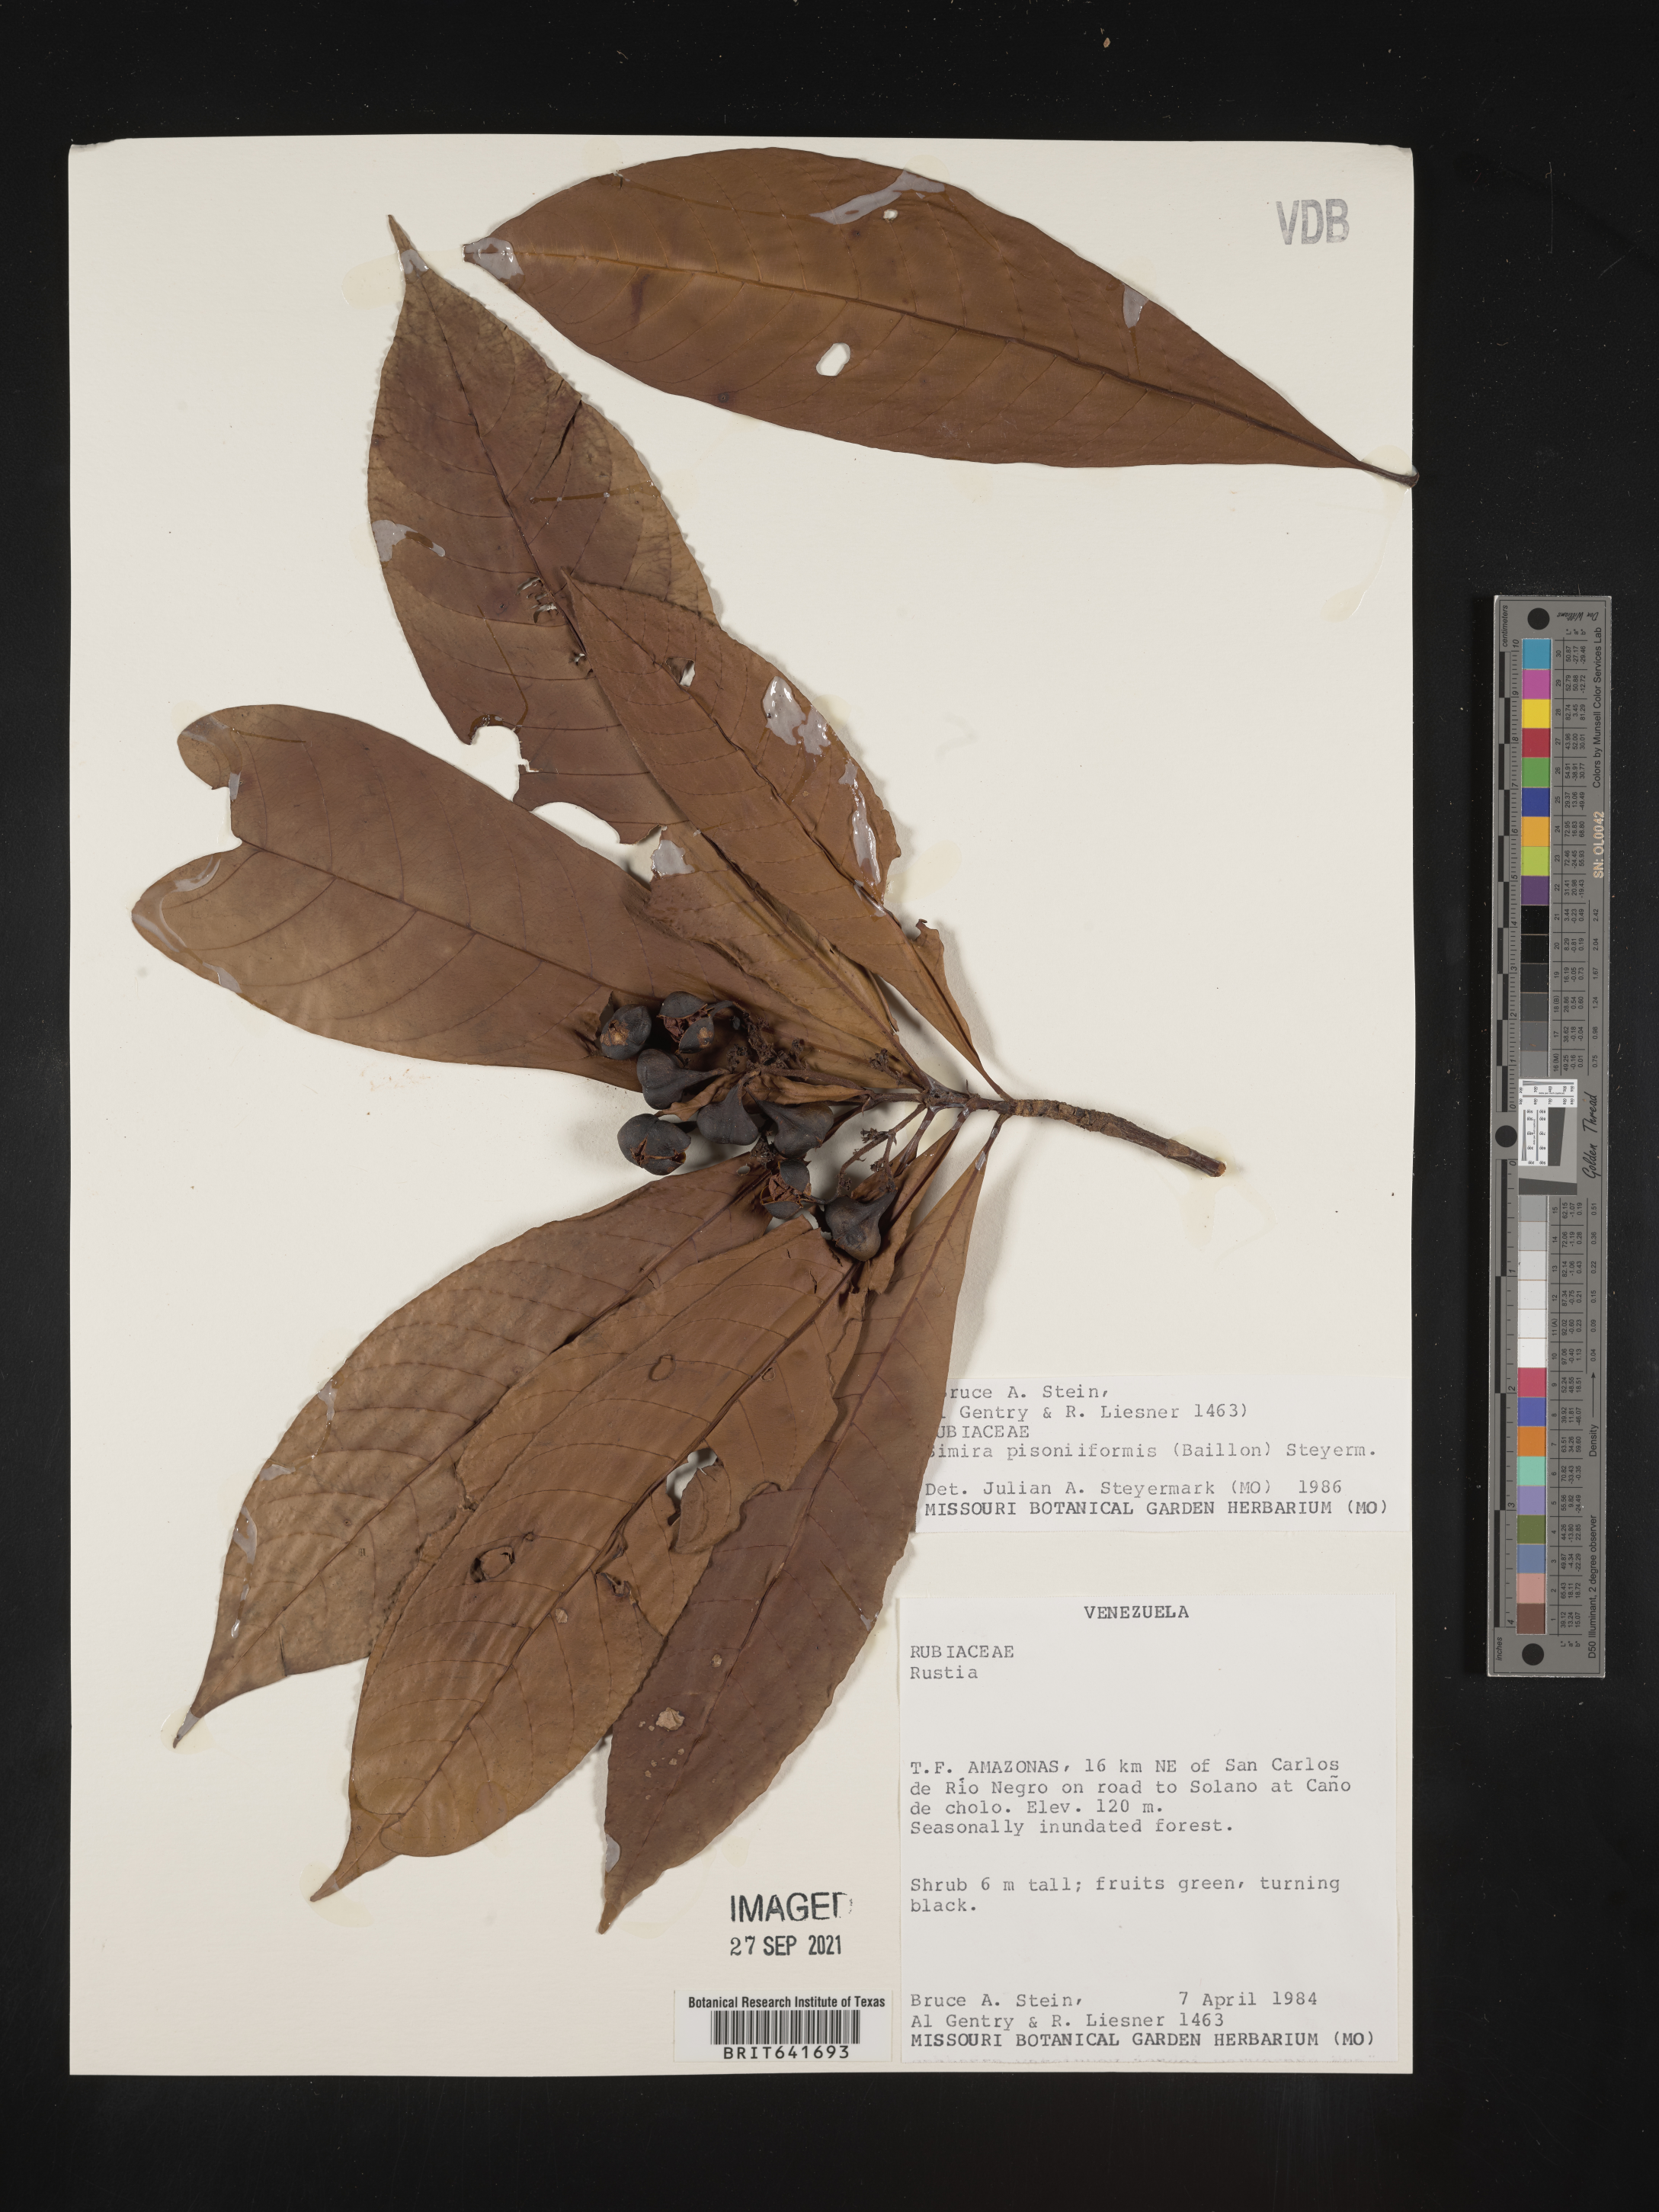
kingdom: Plantae
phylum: Tracheophyta
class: Magnoliopsida
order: Gentianales
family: Rubiaceae
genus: Simira
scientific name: Simira
